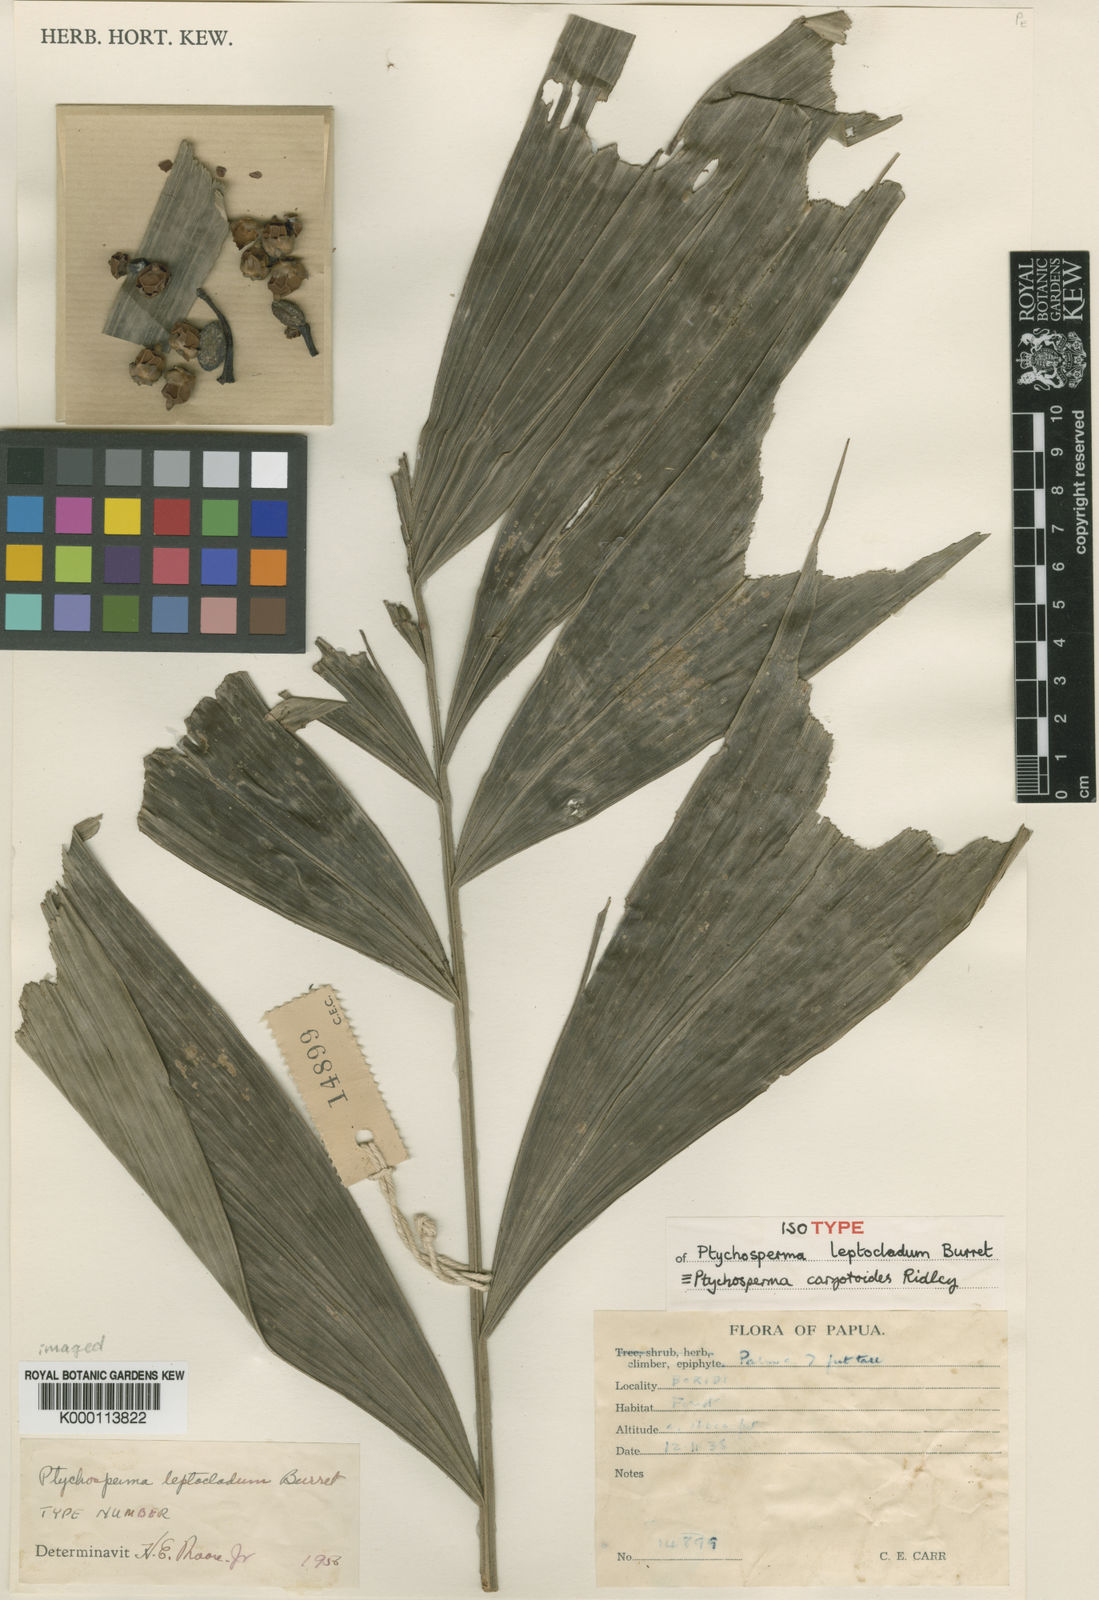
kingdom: Plantae
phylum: Tracheophyta
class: Liliopsida
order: Arecales
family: Arecaceae
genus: Ptychosperma
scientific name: Ptychosperma caryotoides
